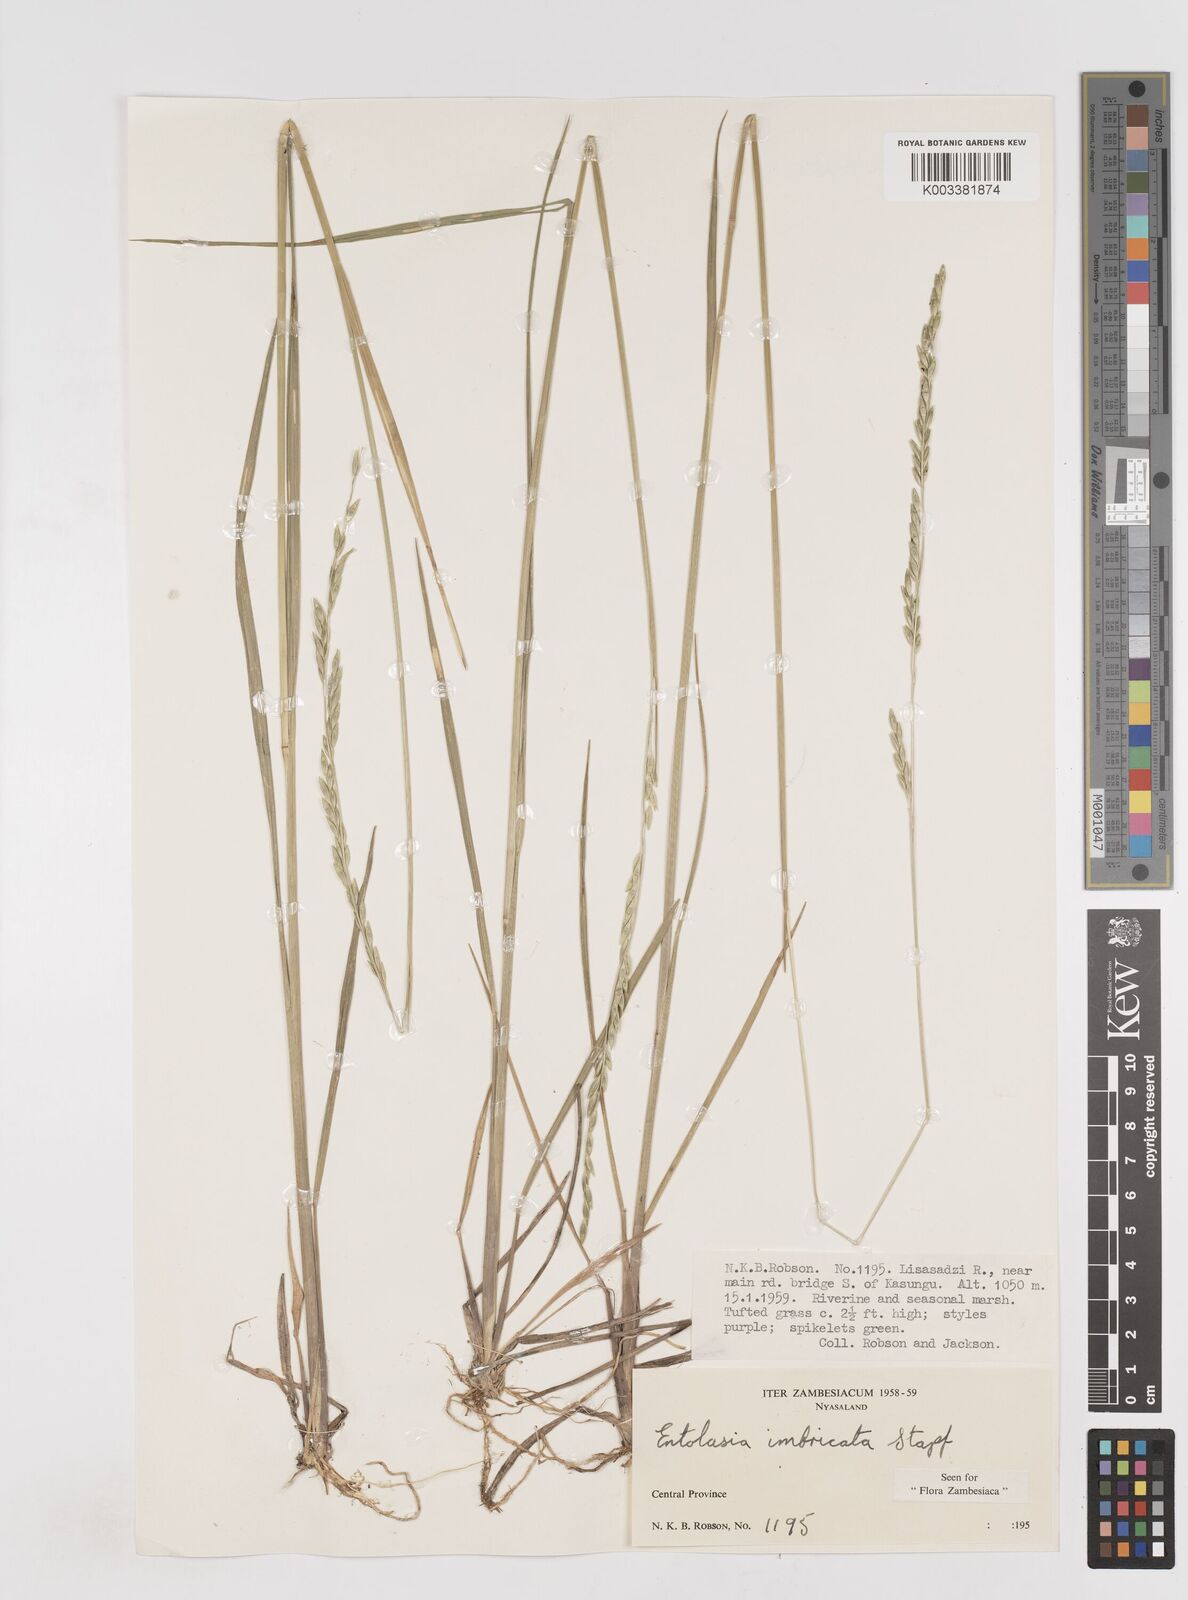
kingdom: Plantae
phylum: Tracheophyta
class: Liliopsida
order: Poales
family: Poaceae
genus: Entolasia
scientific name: Entolasia imbricata
